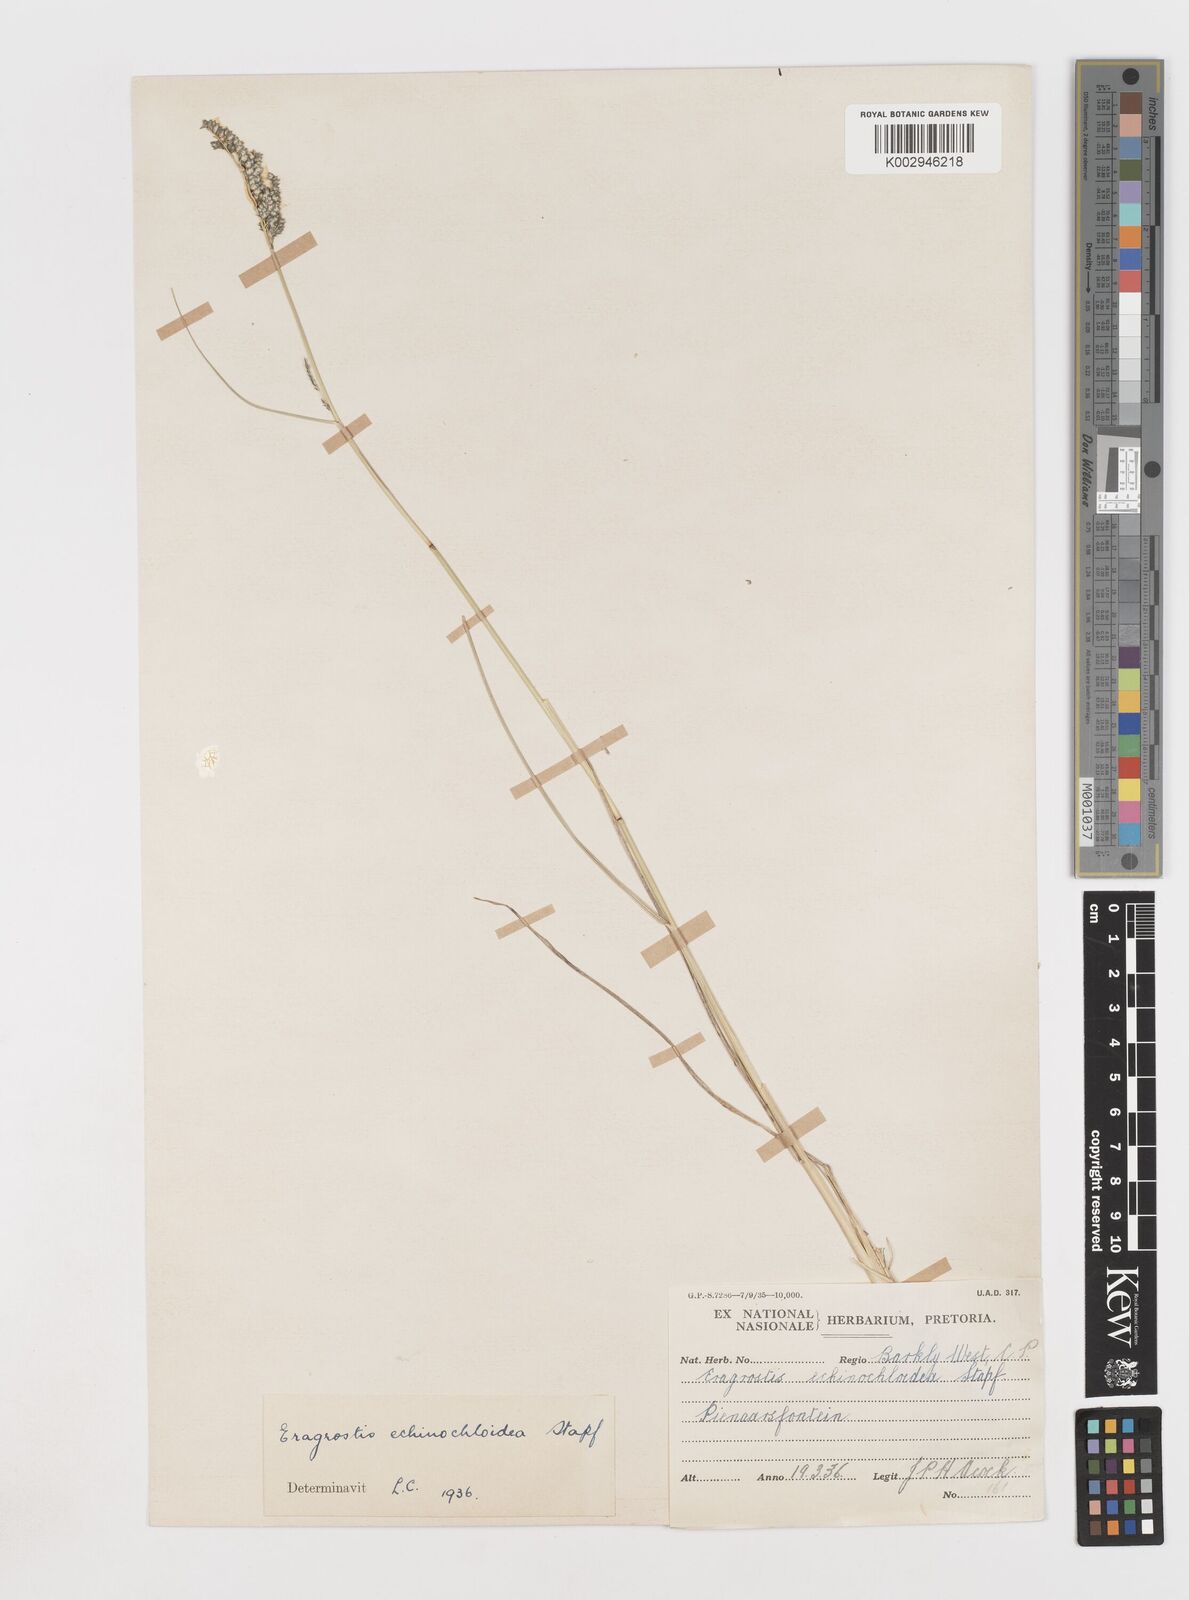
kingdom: Plantae
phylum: Tracheophyta
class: Liliopsida
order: Poales
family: Poaceae
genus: Eragrostis
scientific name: Eragrostis echinochloidea
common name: African lovegrass
